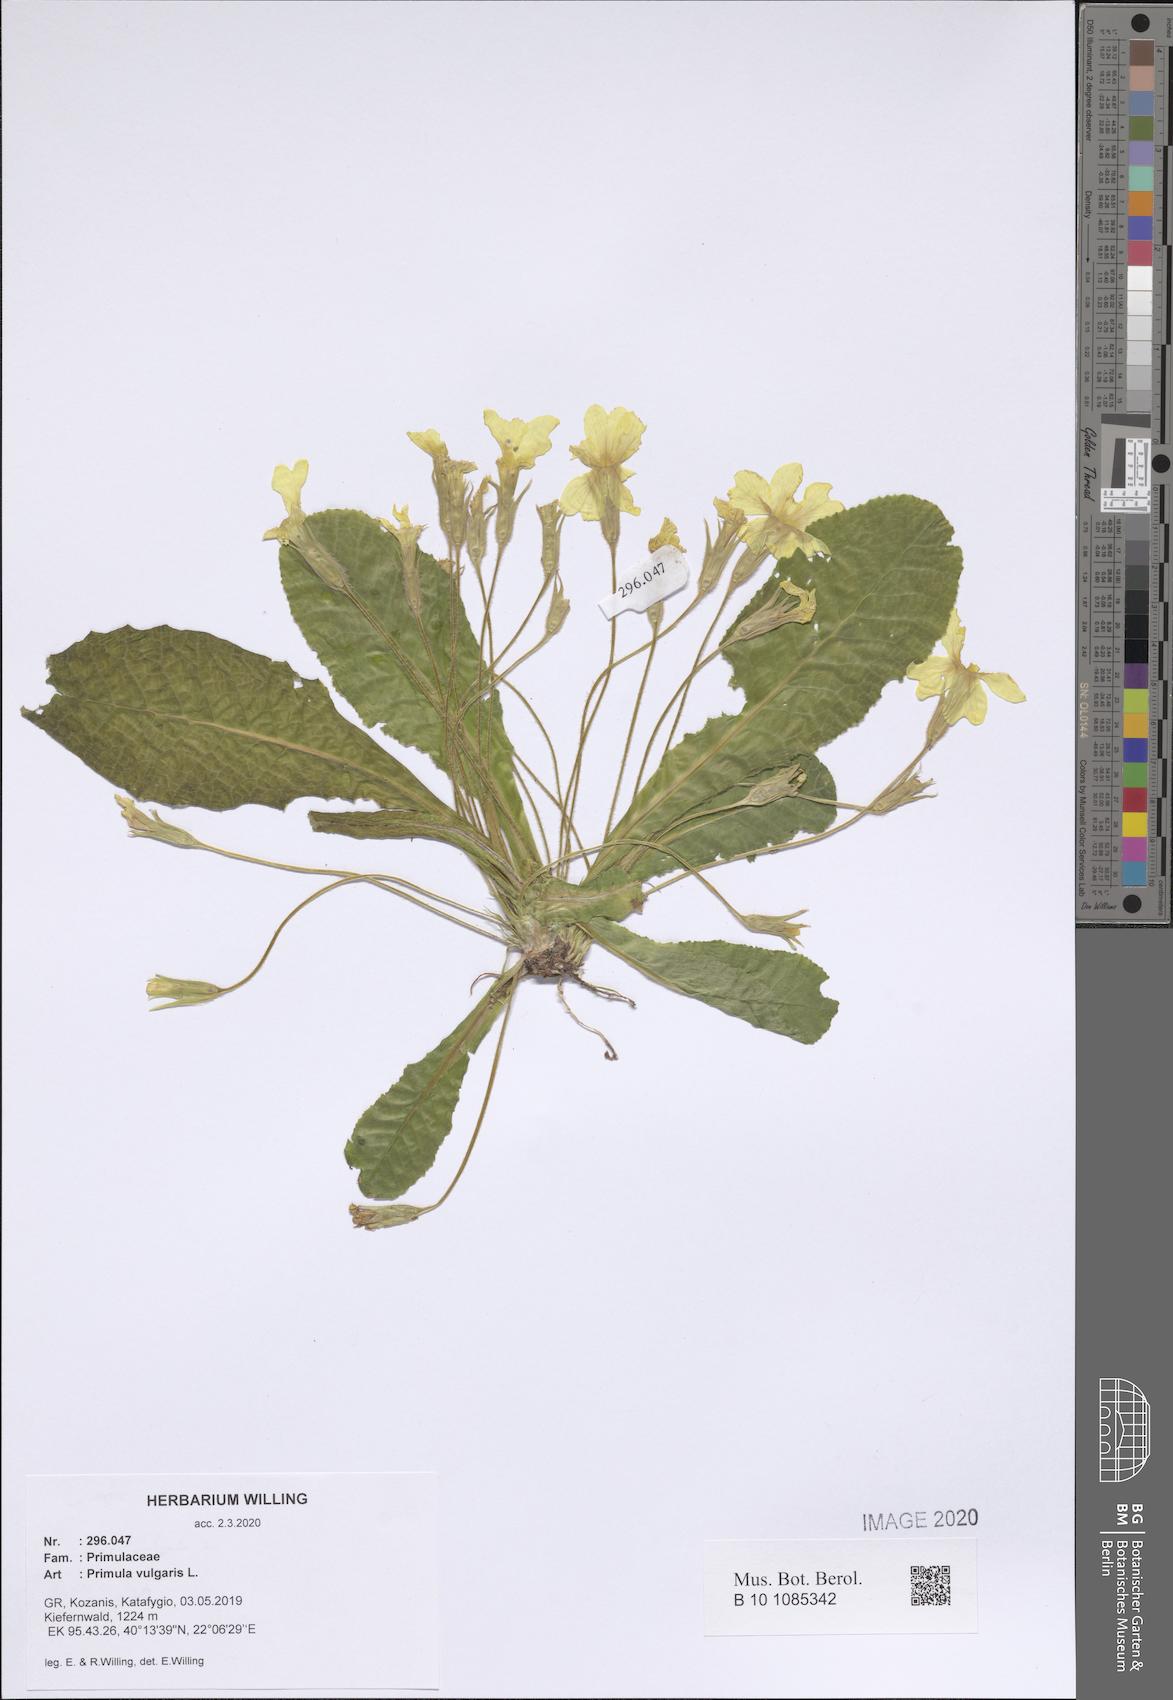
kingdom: Plantae
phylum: Tracheophyta
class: Magnoliopsida
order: Ericales
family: Primulaceae
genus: Primula
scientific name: Primula vulgaris
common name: Primrose
